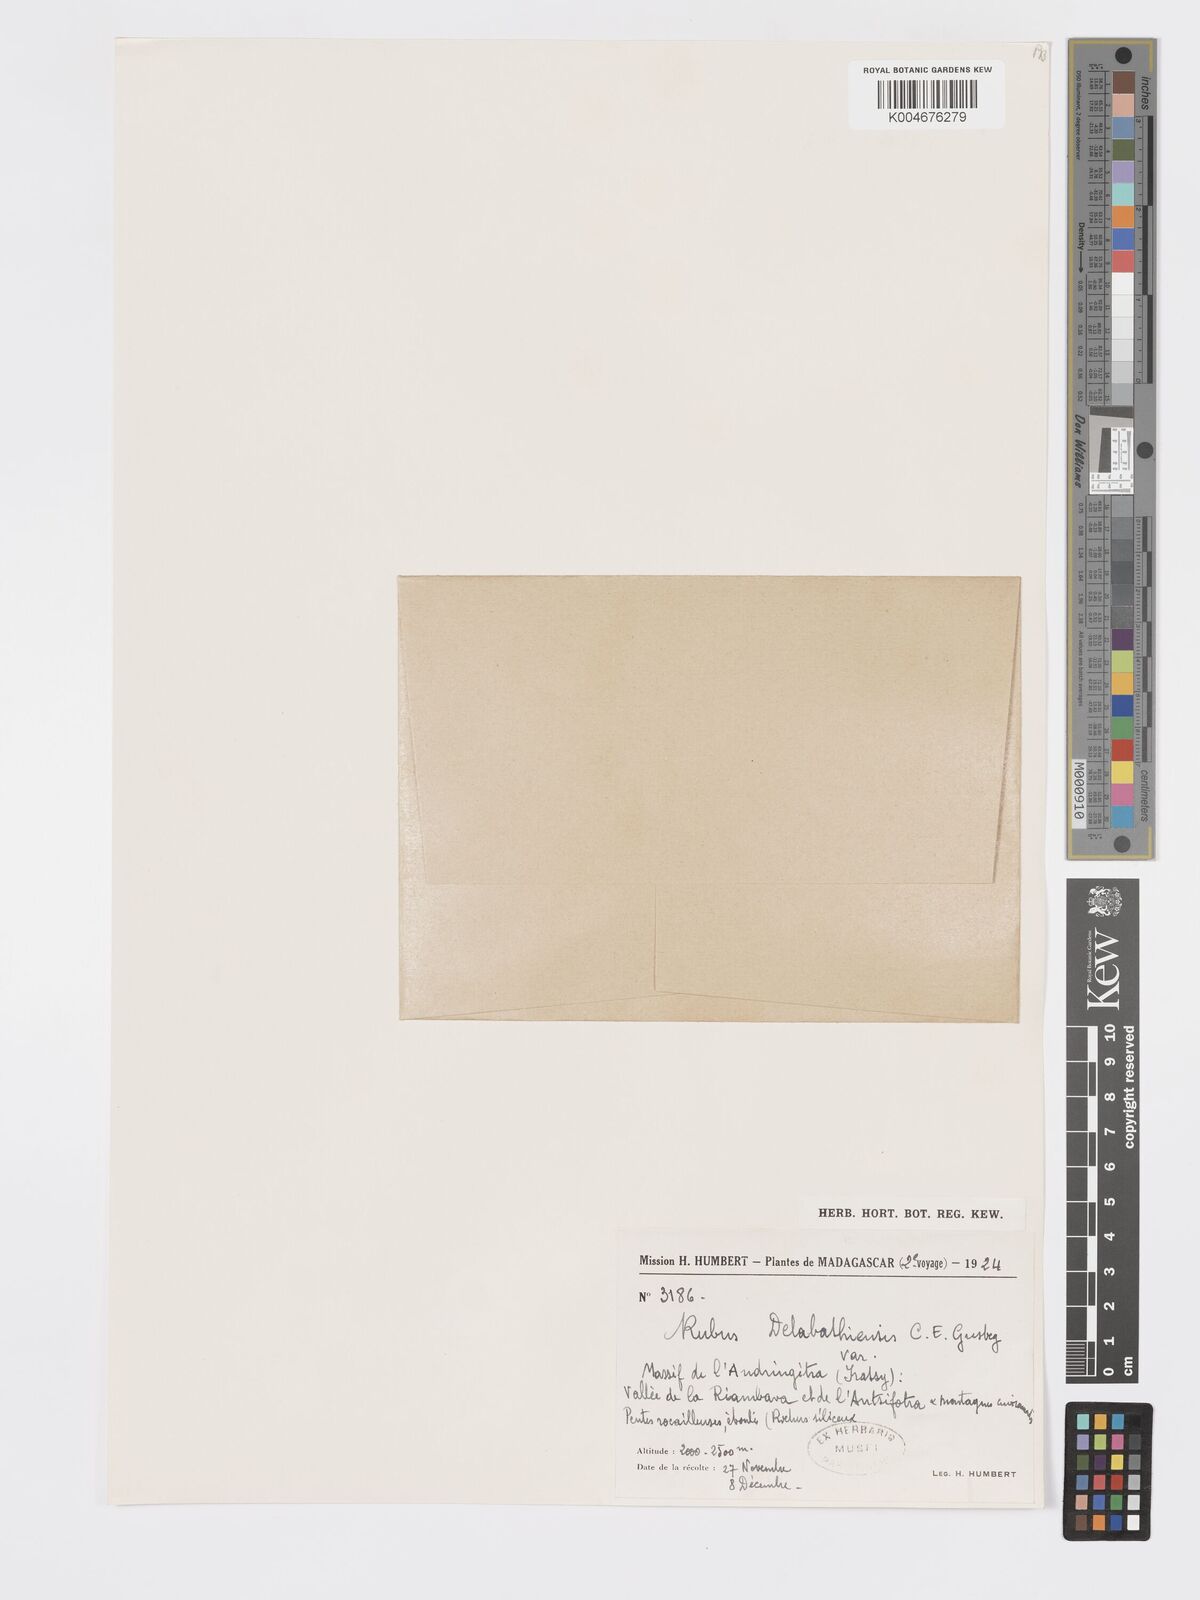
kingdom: Plantae
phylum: Tracheophyta
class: Magnoliopsida
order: Rosales
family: Rosaceae
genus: Rubus
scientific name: Rubus delabathiensis
